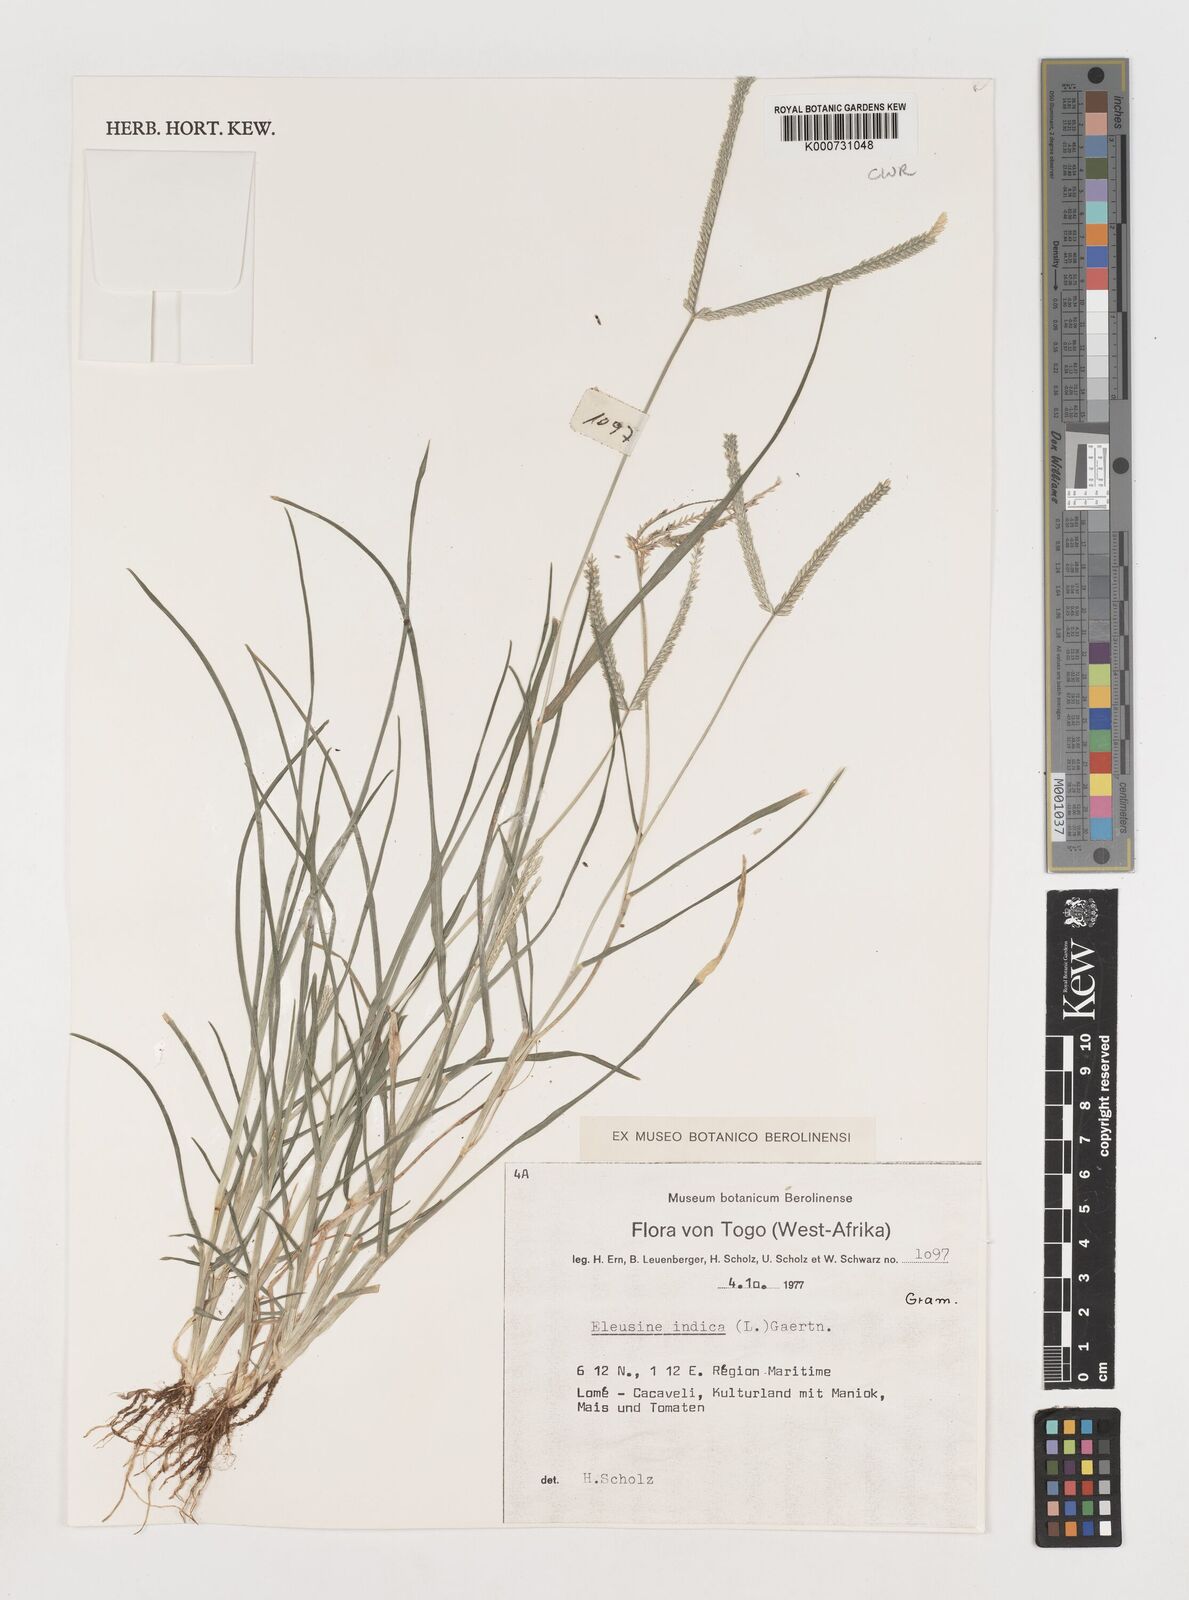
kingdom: Plantae
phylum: Tracheophyta
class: Liliopsida
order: Poales
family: Poaceae
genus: Eleusine
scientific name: Eleusine indica
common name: Yard-grass
